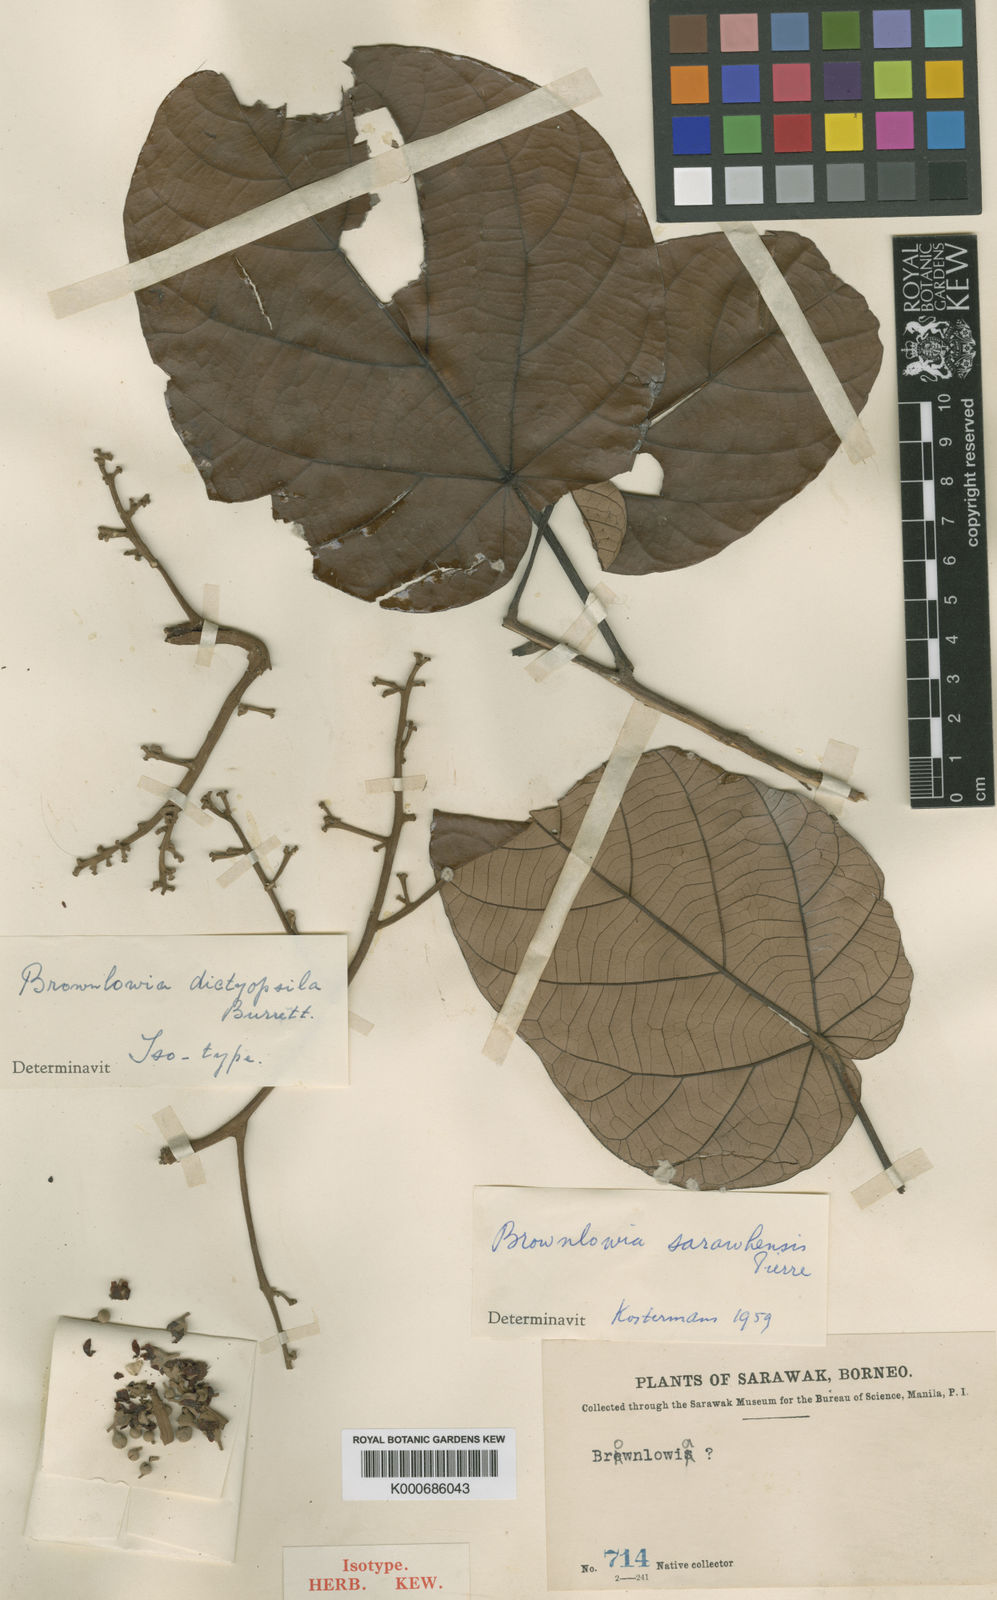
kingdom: Plantae
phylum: Tracheophyta
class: Magnoliopsida
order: Malvales
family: Malvaceae
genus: Brownlowia
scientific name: Brownlowia
